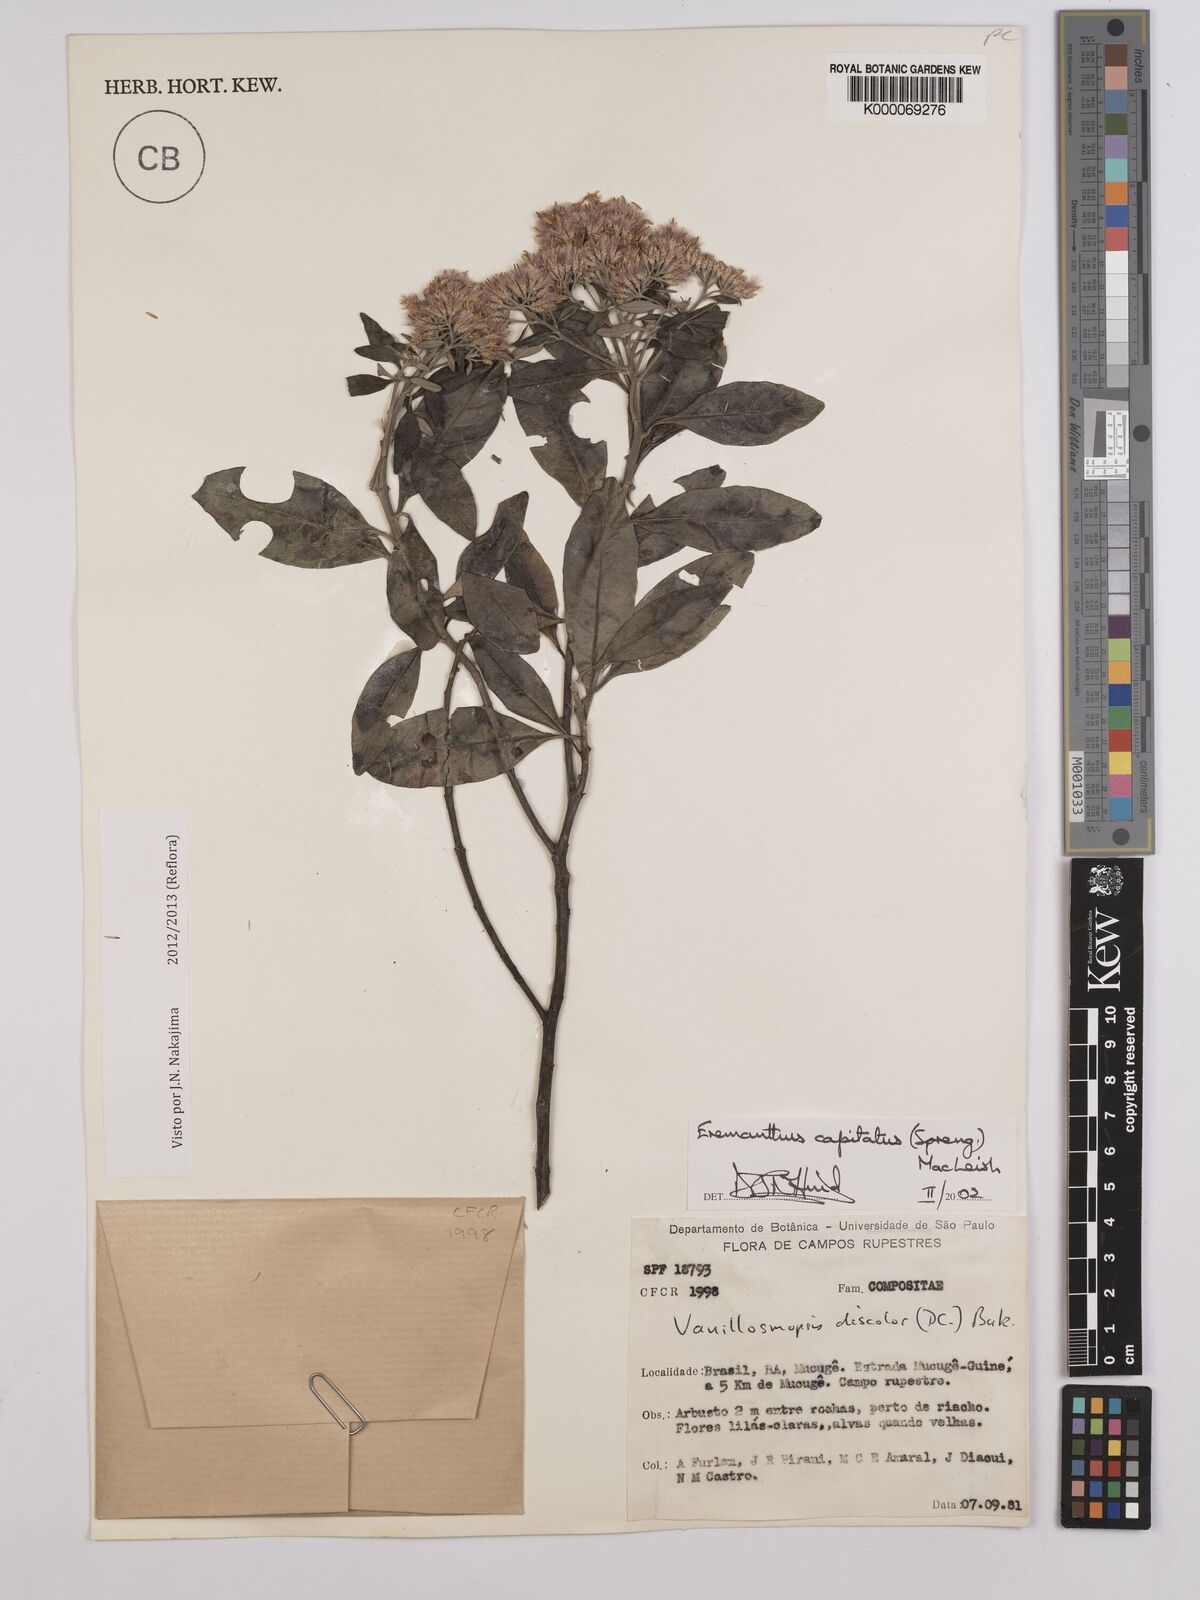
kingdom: Plantae
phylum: Tracheophyta
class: Magnoliopsida
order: Asterales
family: Asteraceae
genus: Eremanthus
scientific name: Eremanthus capitatus
